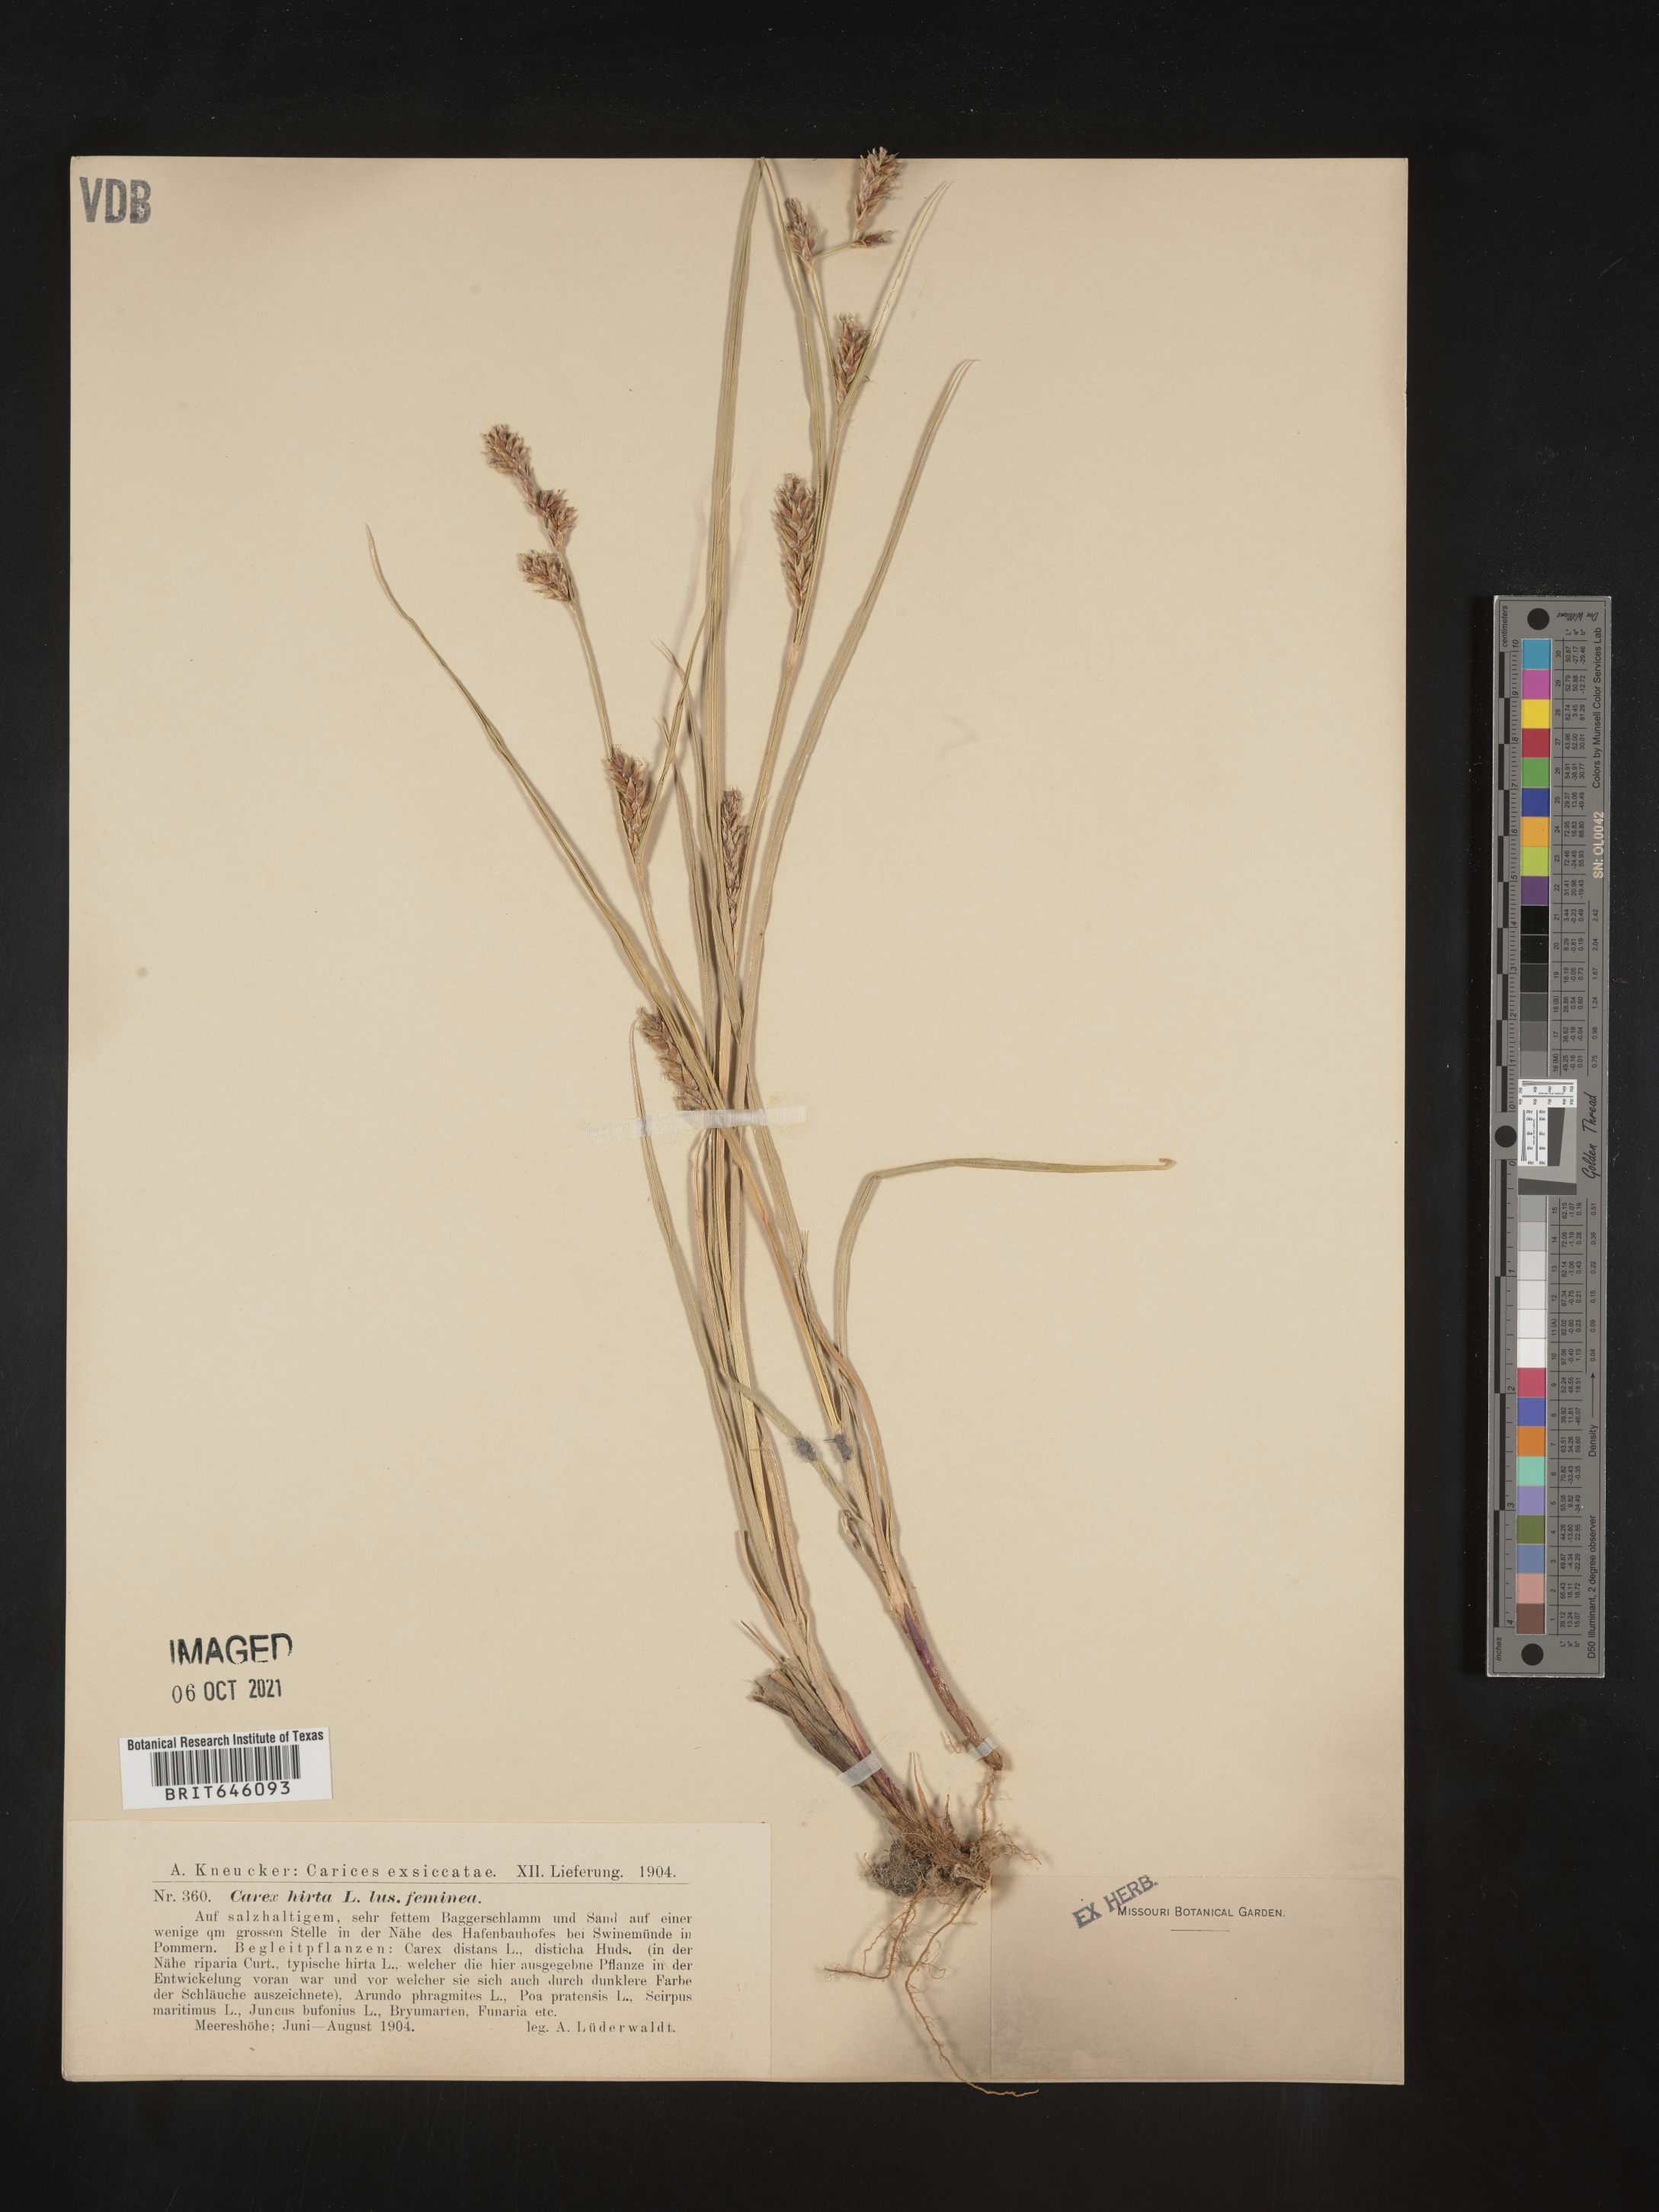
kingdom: Plantae
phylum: Tracheophyta
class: Liliopsida
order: Poales
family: Cyperaceae
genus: Carex
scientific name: Carex
